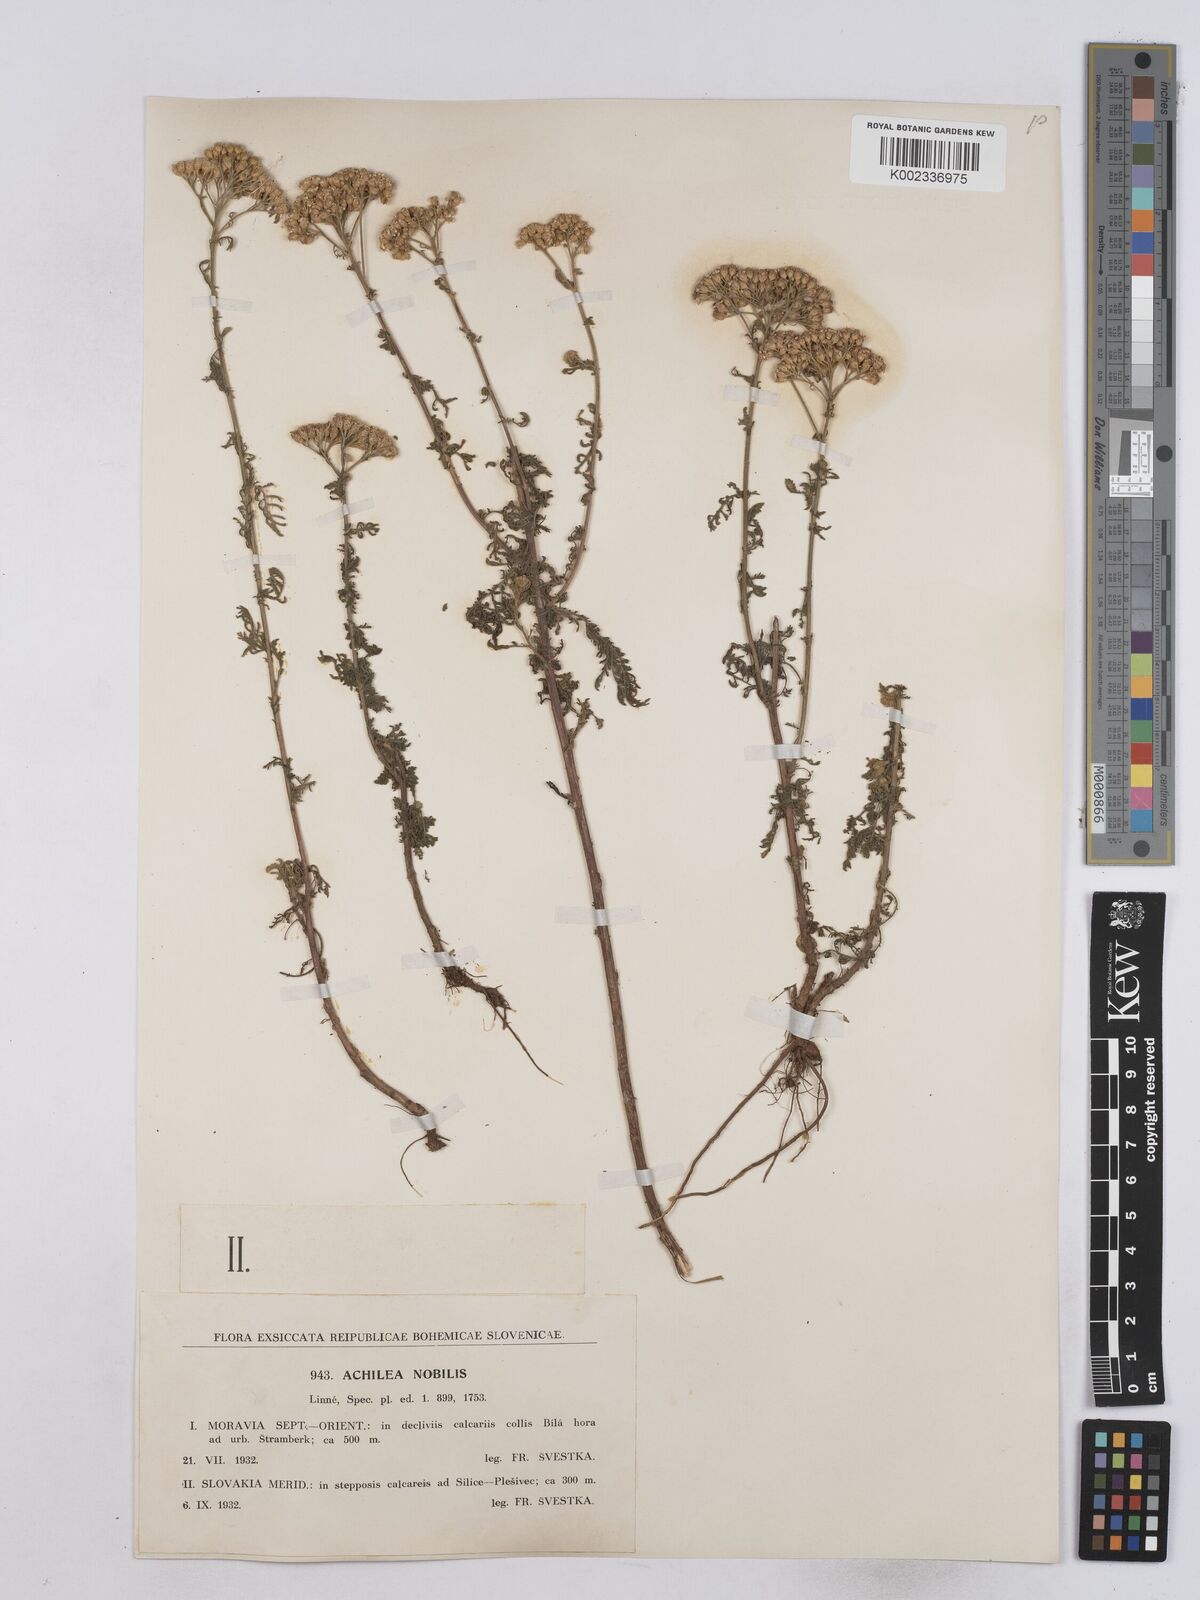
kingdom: Plantae
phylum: Tracheophyta
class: Magnoliopsida
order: Asterales
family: Asteraceae
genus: Achillea
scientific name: Achillea nobilis
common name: Noble yarrow
